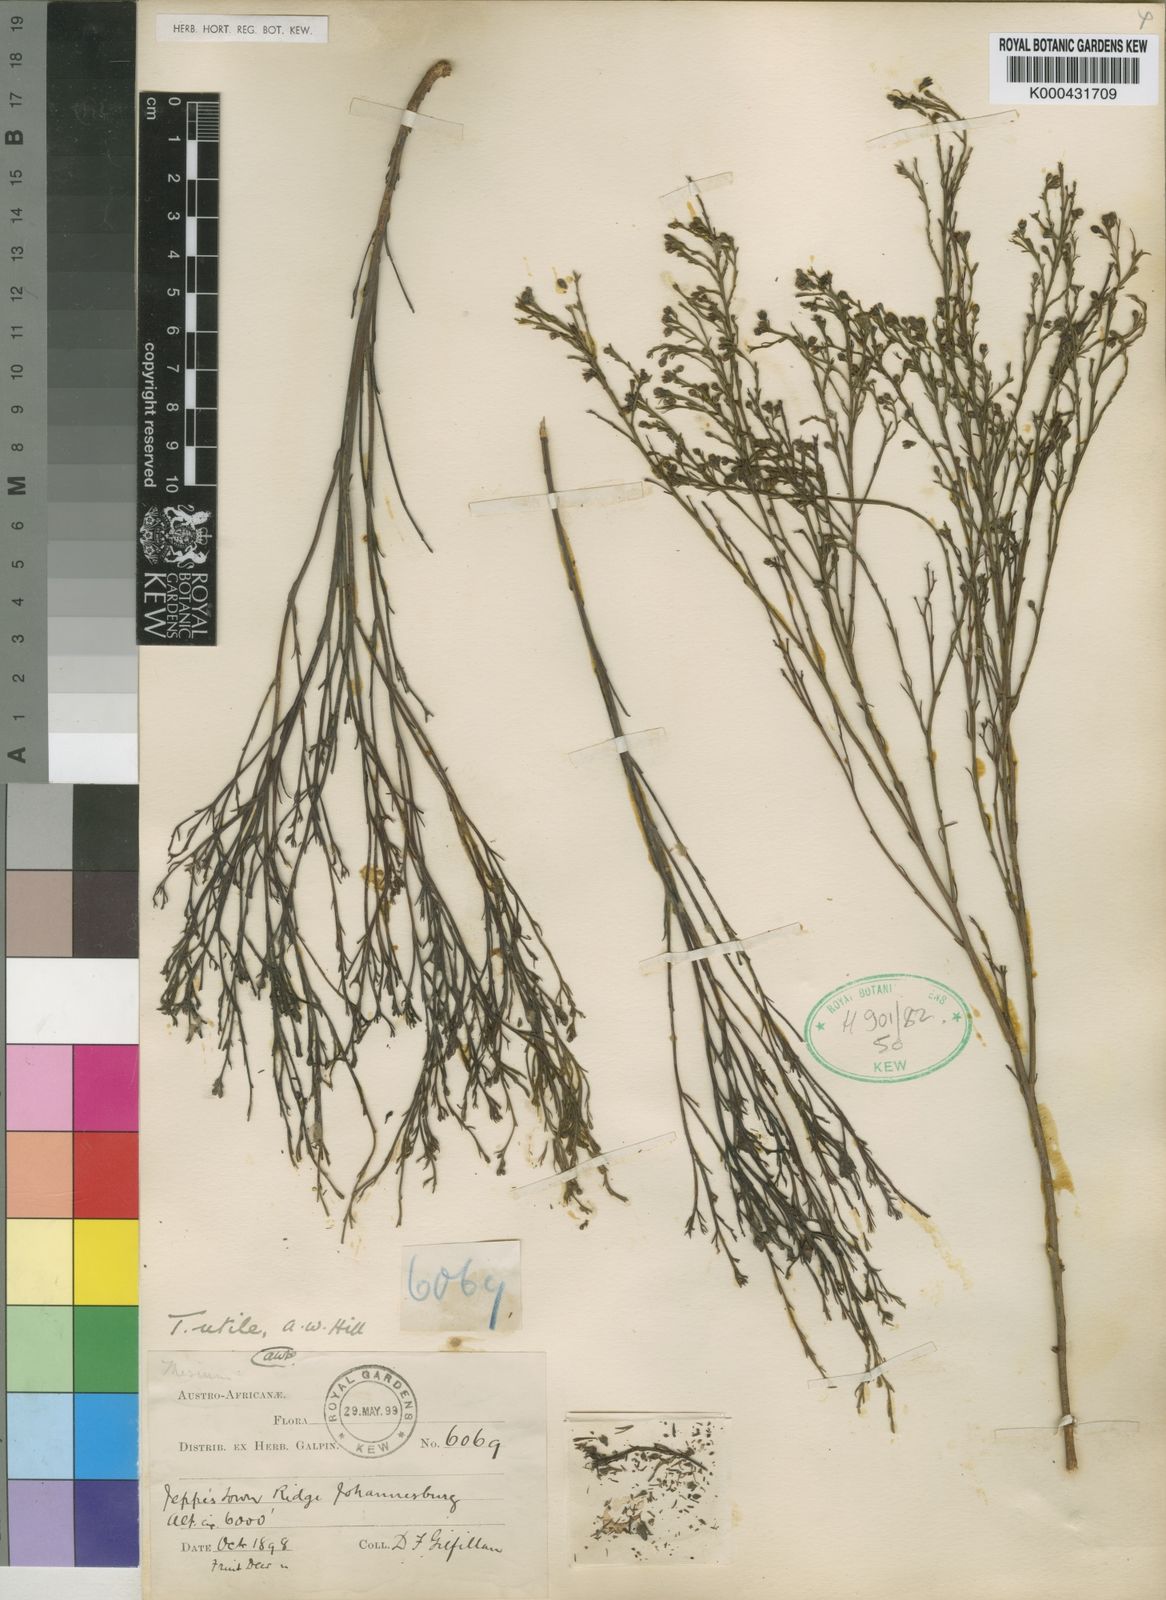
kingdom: Plantae
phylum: Tracheophyta
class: Magnoliopsida
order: Santalales
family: Thesiaceae
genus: Thesium
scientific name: Thesium utile
